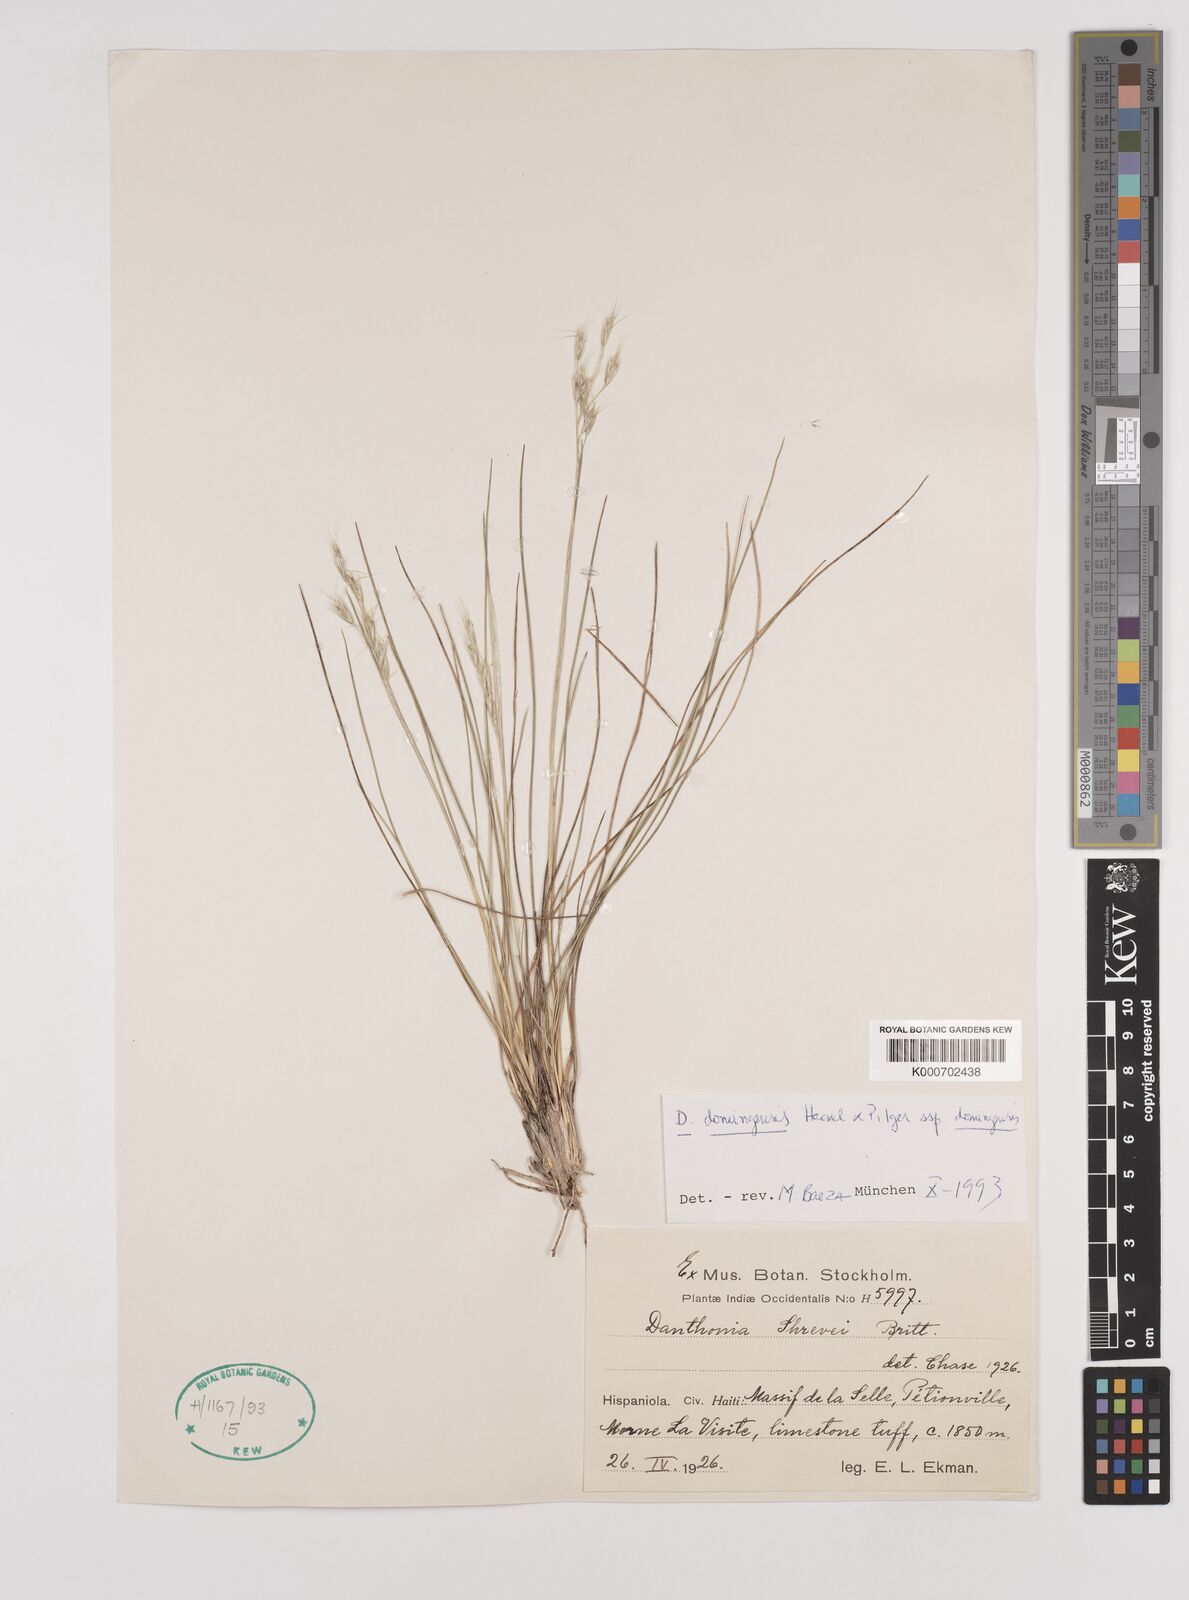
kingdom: Plantae
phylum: Tracheophyta
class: Liliopsida
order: Poales
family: Poaceae
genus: Danthonia
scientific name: Danthonia domingensis
